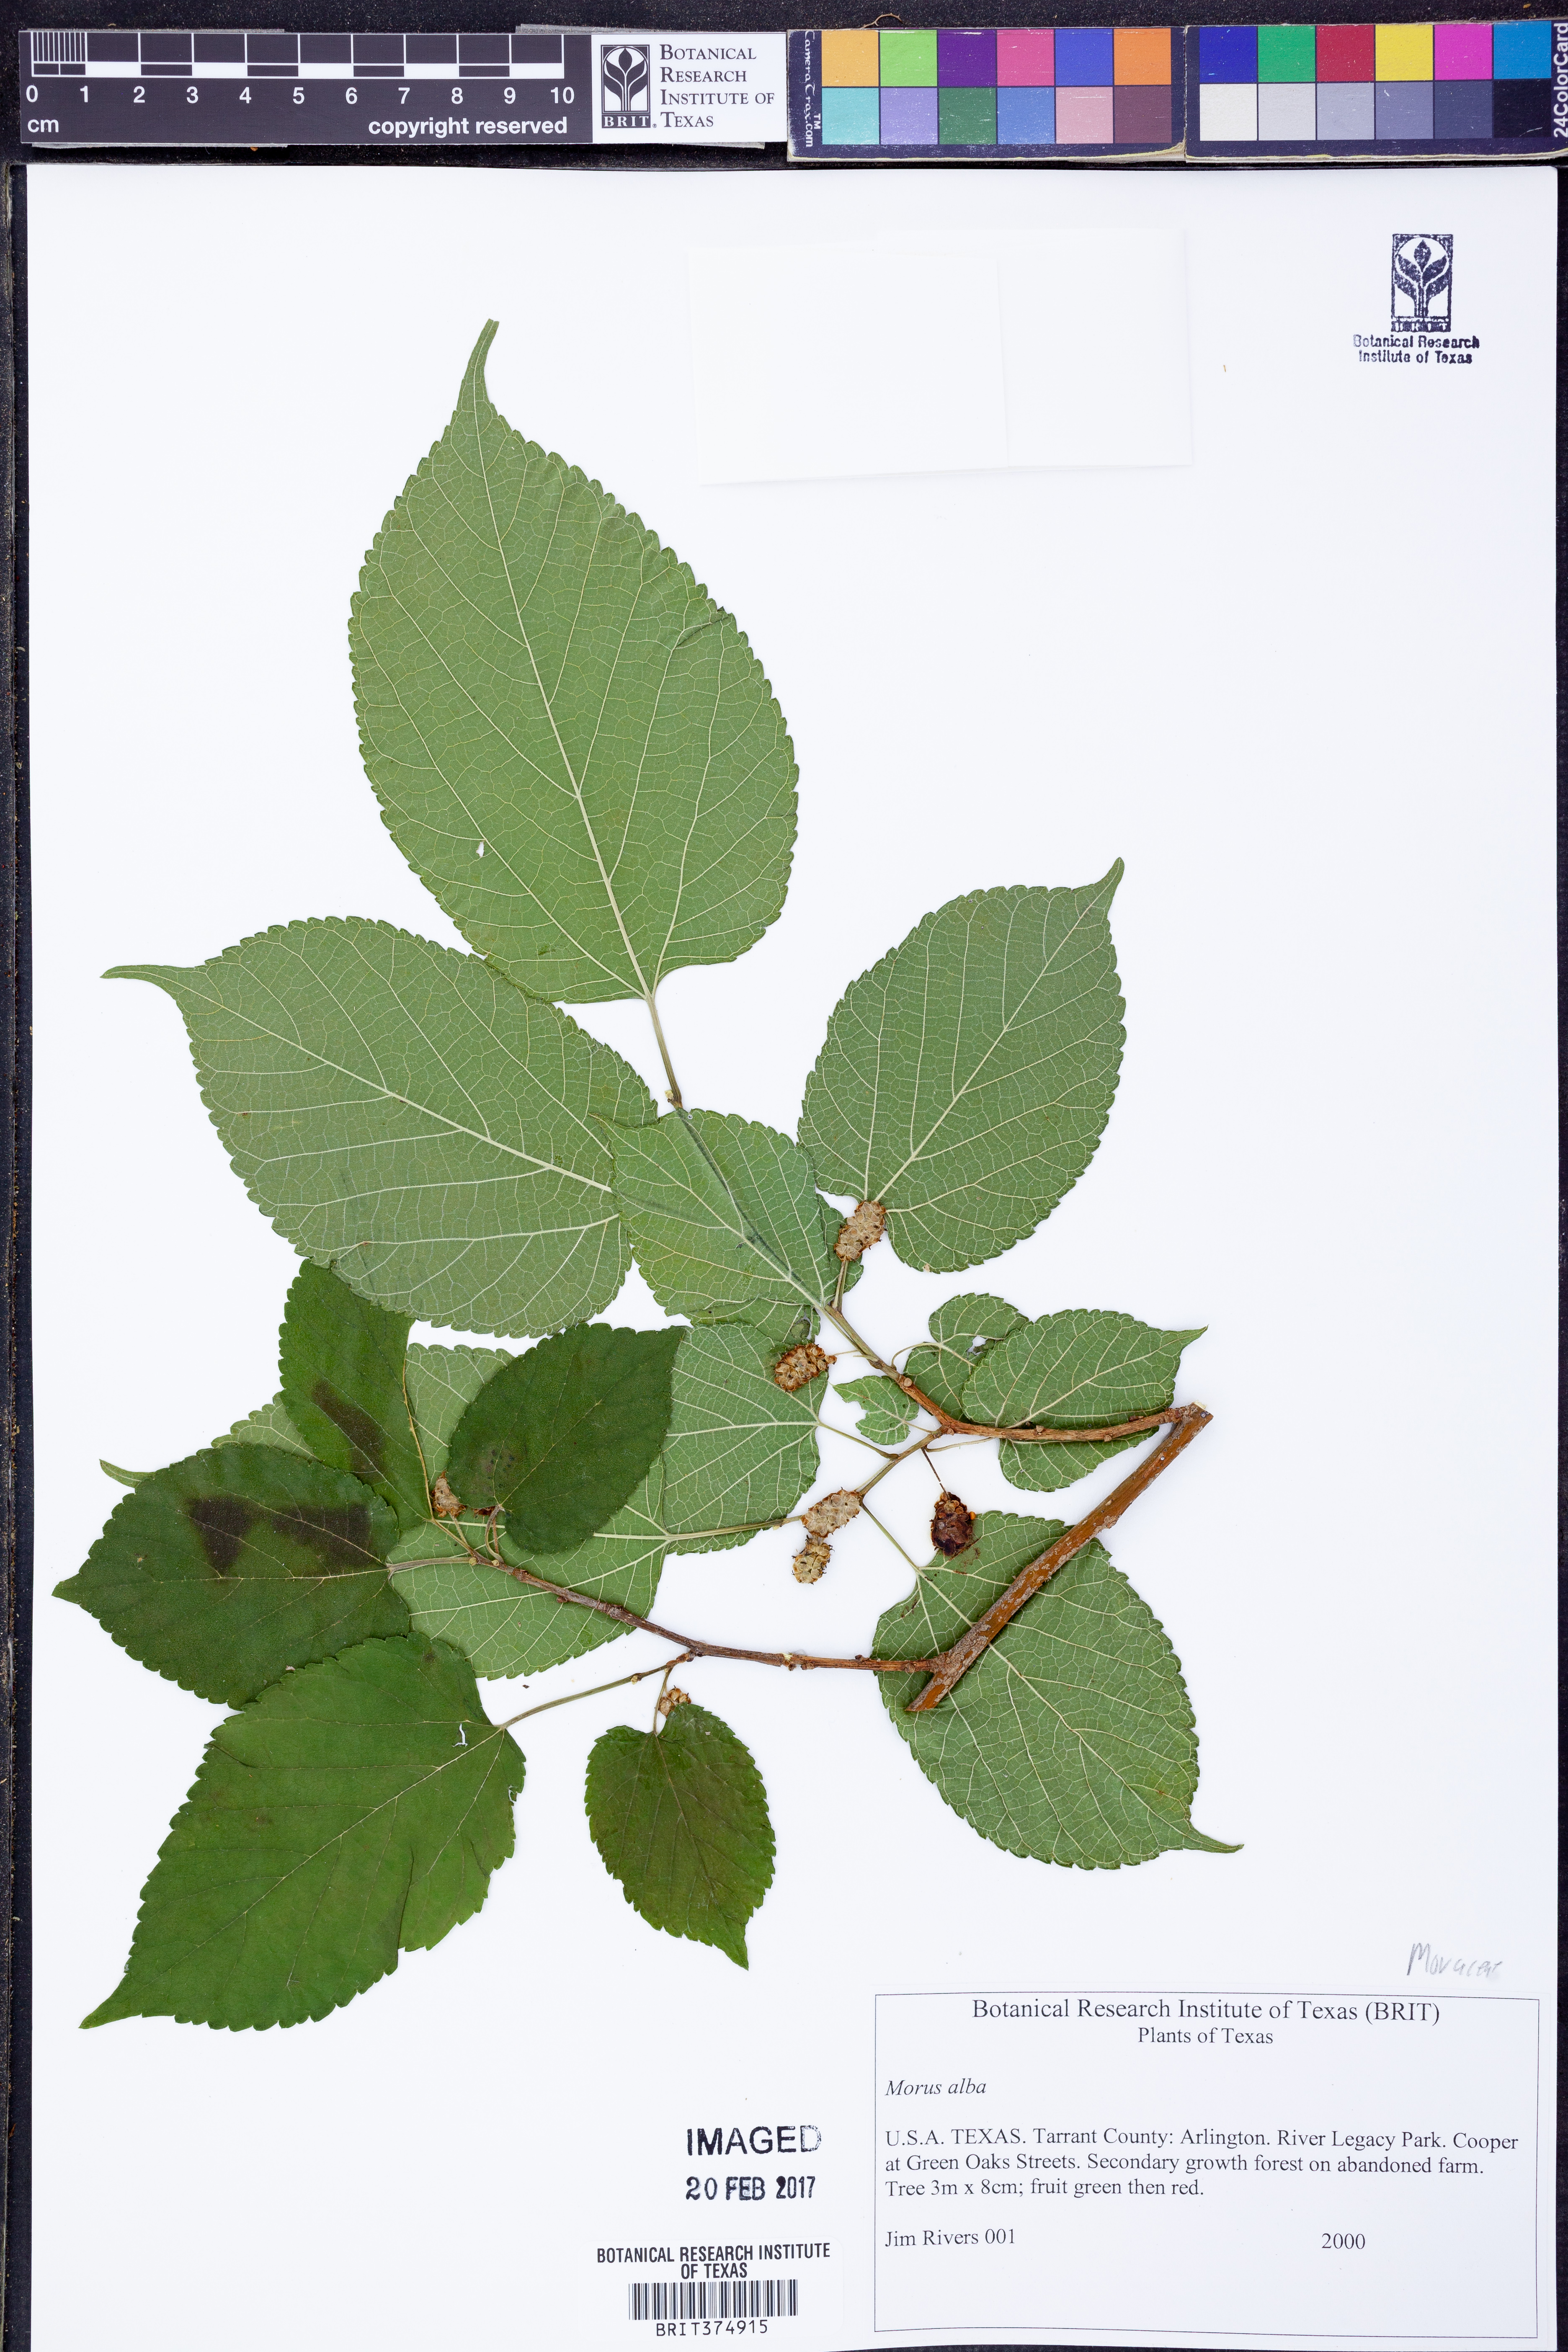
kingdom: Plantae
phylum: Tracheophyta
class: Magnoliopsida
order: Rosales
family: Moraceae
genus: Morus
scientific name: Morus alba
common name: White mulberry
